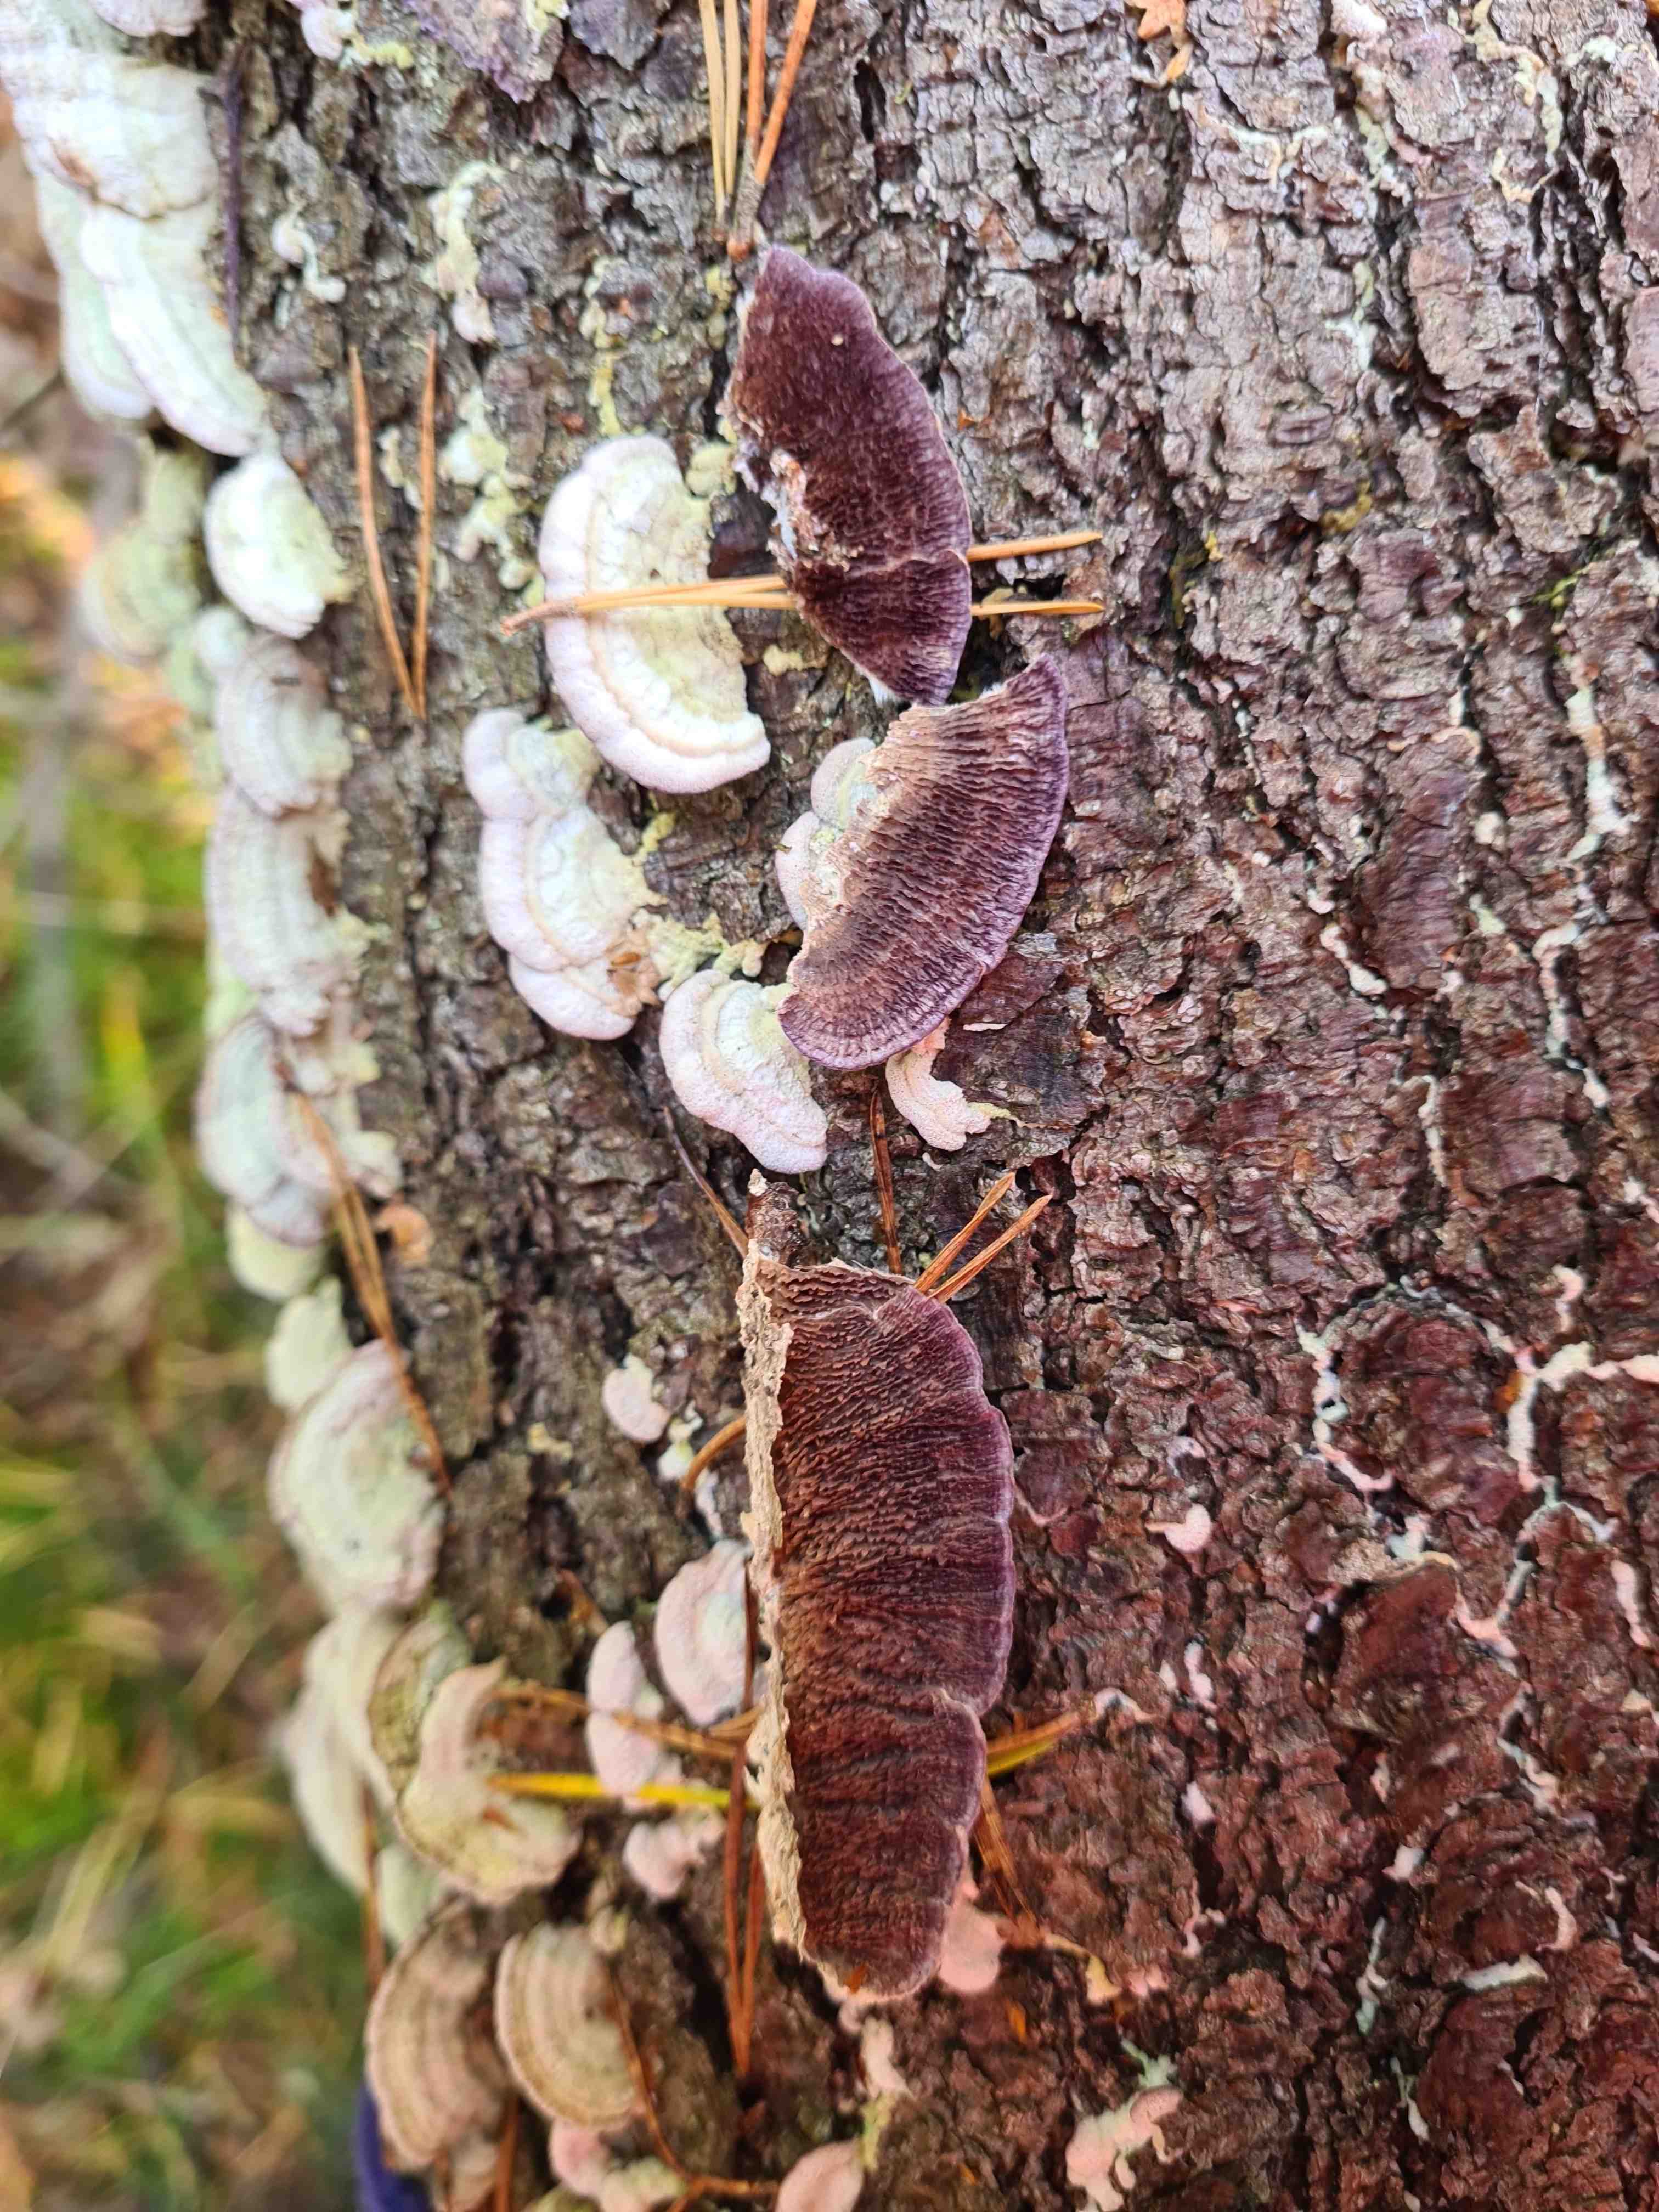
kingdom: Fungi
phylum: Basidiomycota
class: Agaricomycetes
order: Hymenochaetales
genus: Trichaptum
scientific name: Trichaptum fuscoviolaceum
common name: tandet violporesvamp
